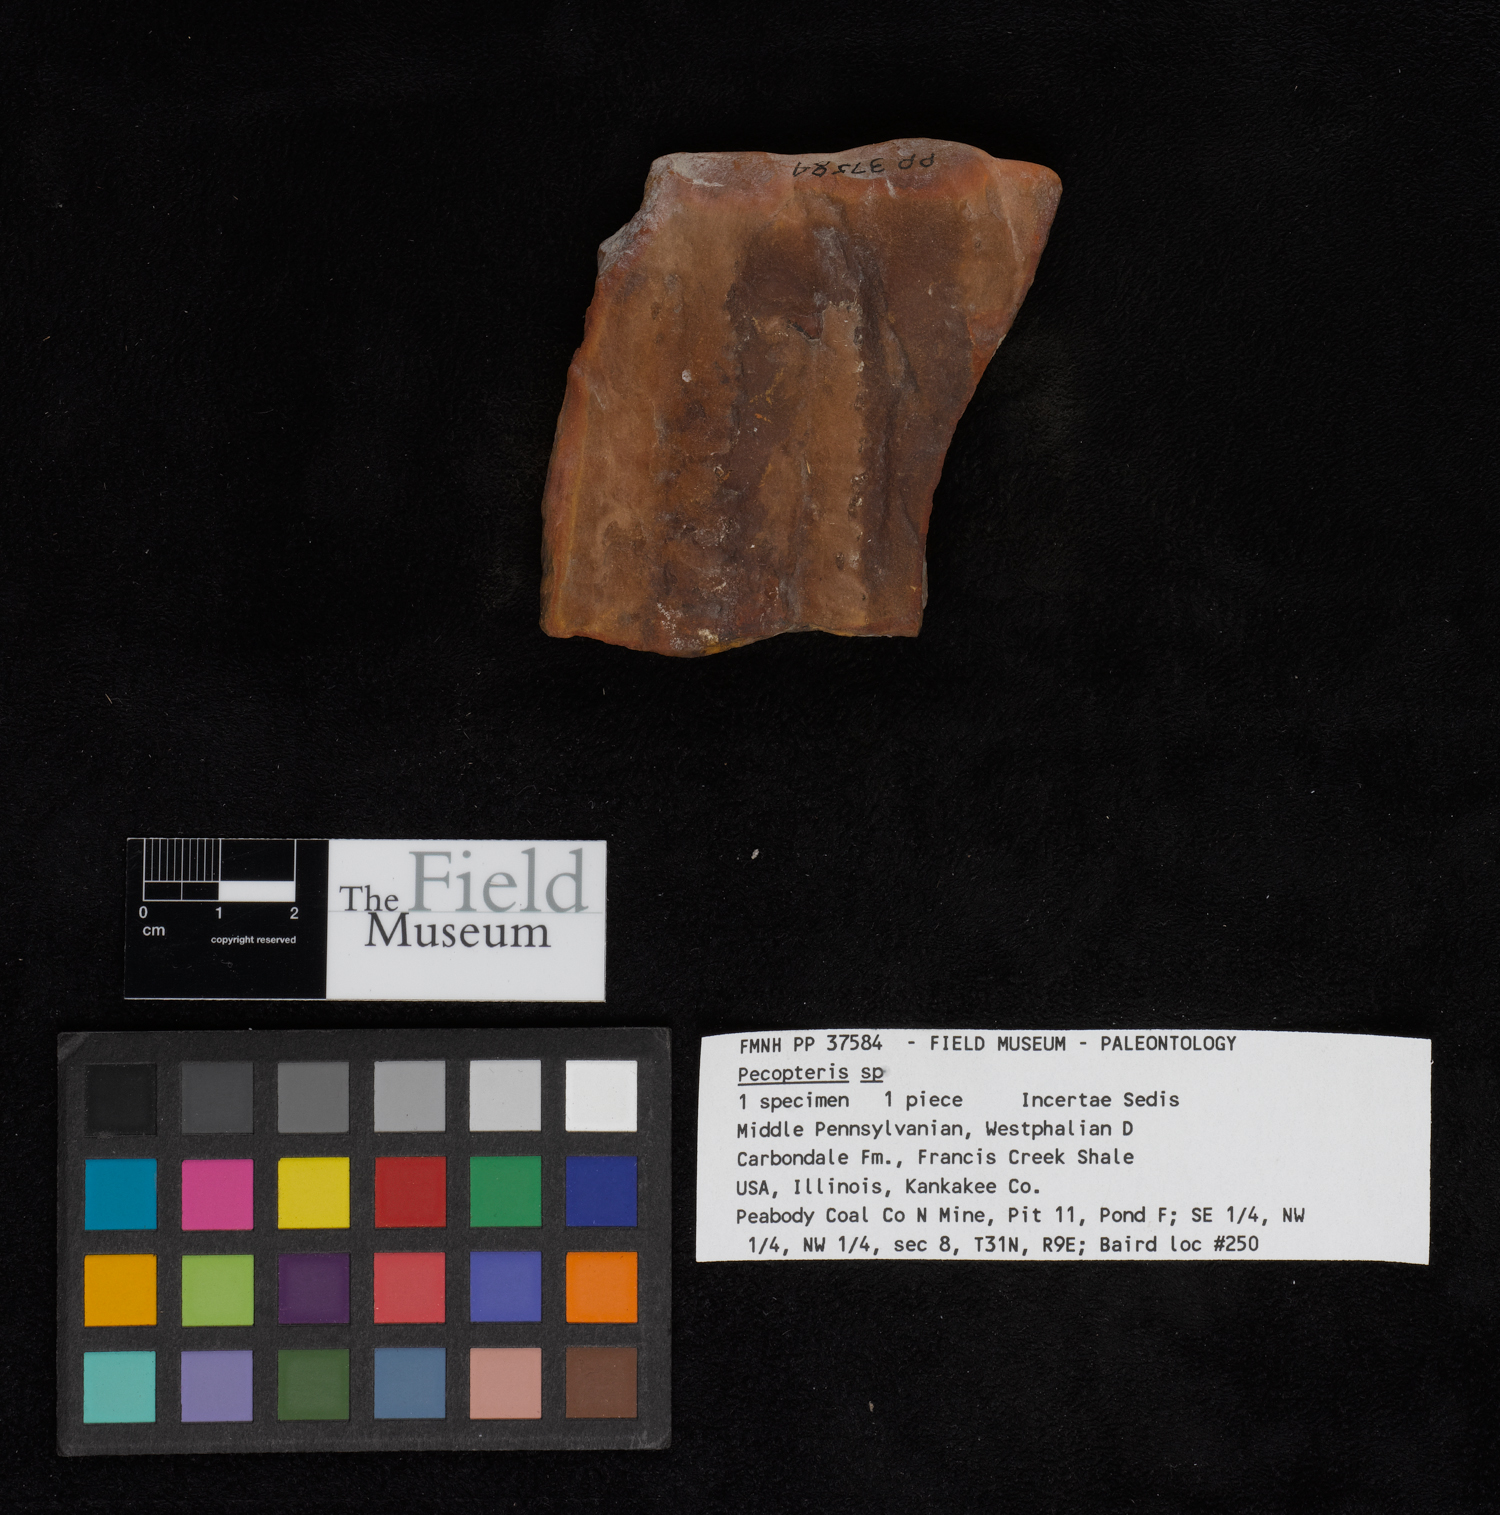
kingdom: Plantae
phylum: Tracheophyta
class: Polypodiopsida
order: Marattiales
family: Asterothecaceae
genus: Pecopteris
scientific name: Pecopteris
